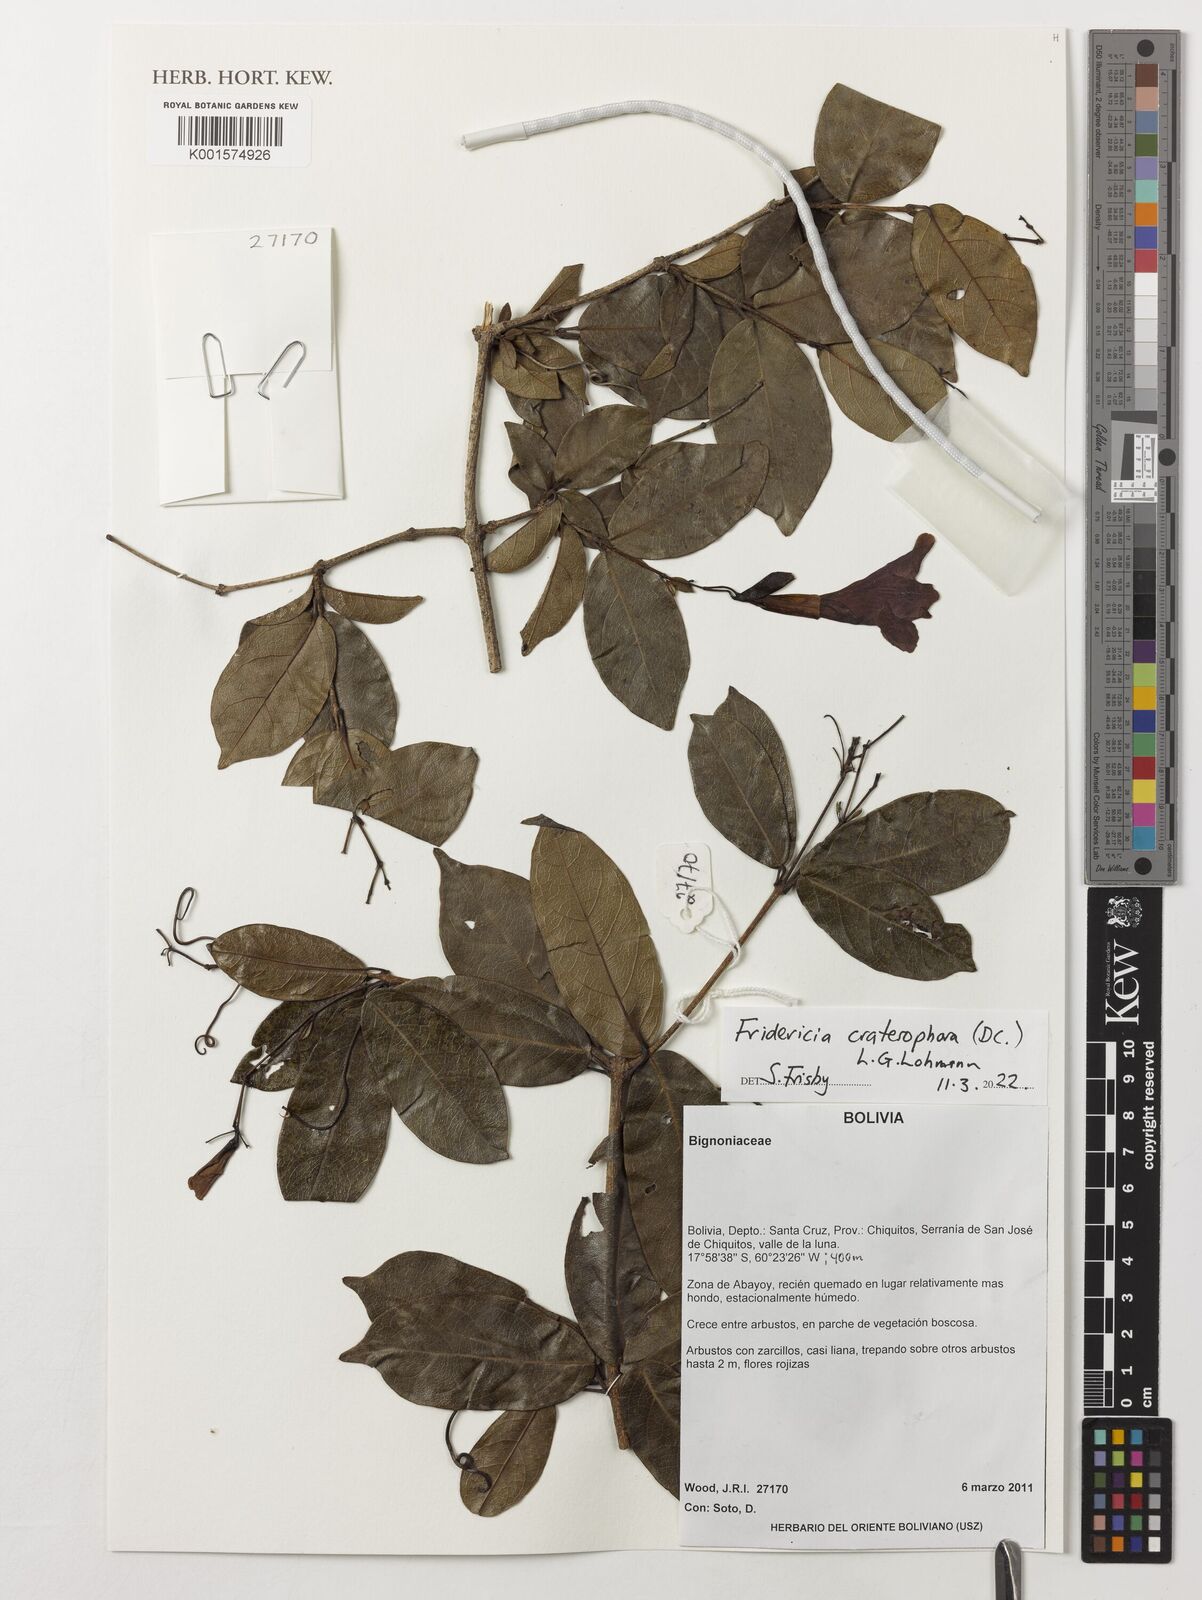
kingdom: Plantae
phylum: Tracheophyta
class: Magnoliopsida
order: Lamiales
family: Bignoniaceae
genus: Fridericia
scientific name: Fridericia craterophora
